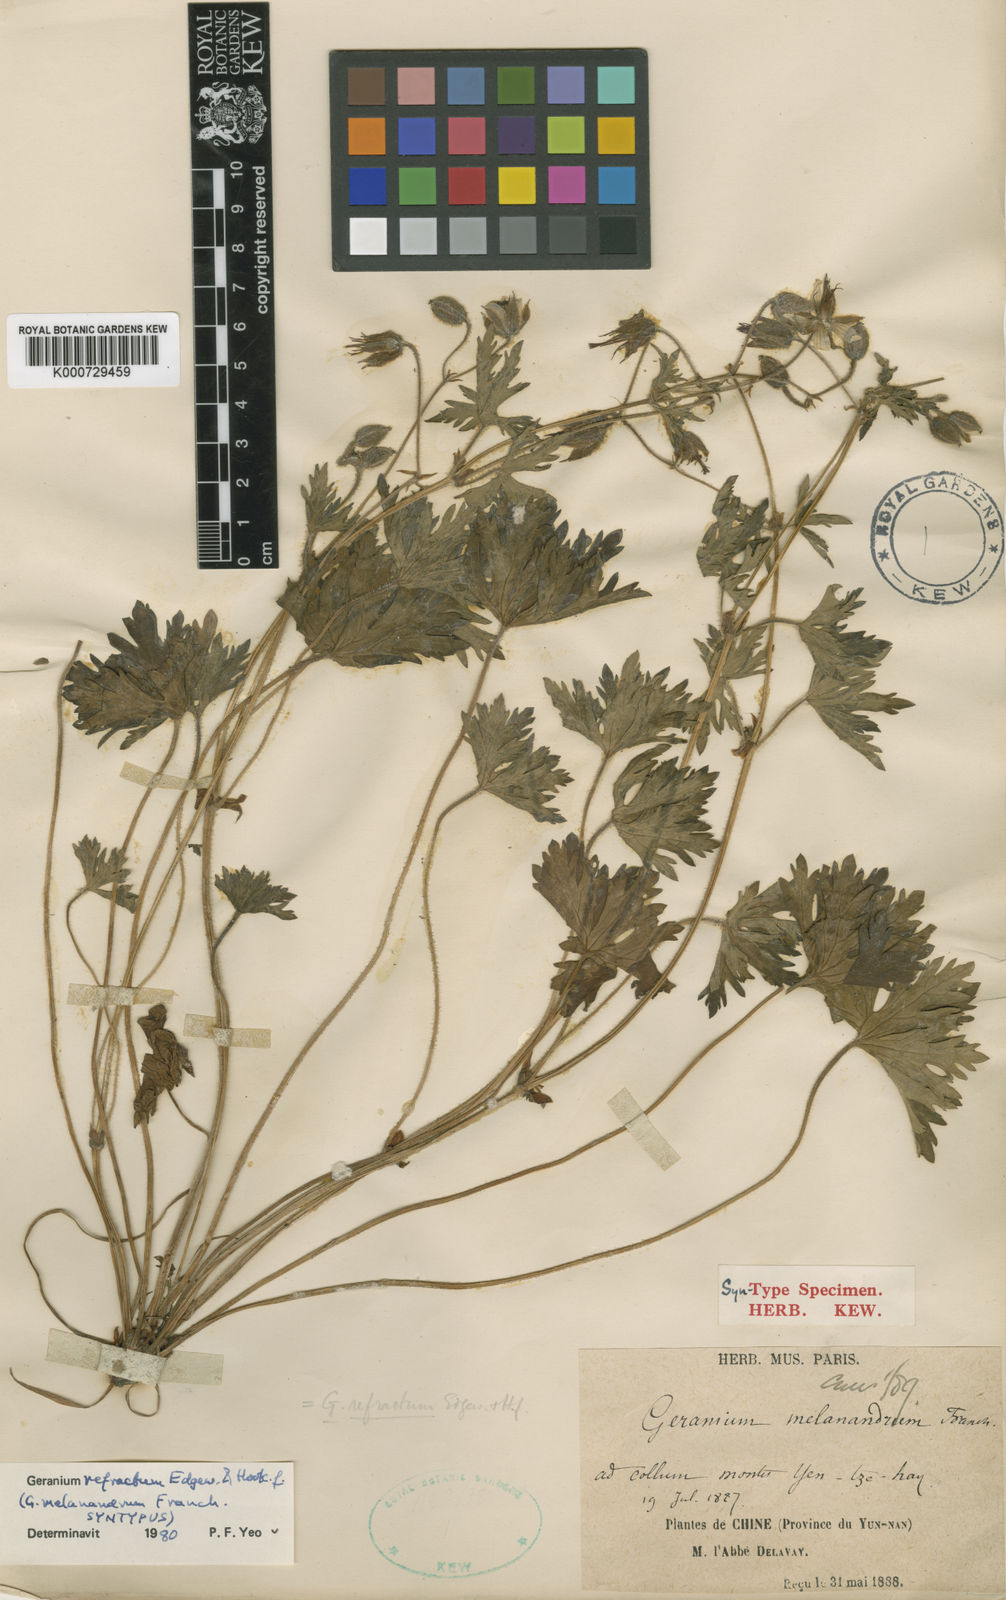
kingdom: Plantae
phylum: Tracheophyta
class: Magnoliopsida
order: Geraniales
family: Geraniaceae
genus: Geranium
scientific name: Geranium refractum
